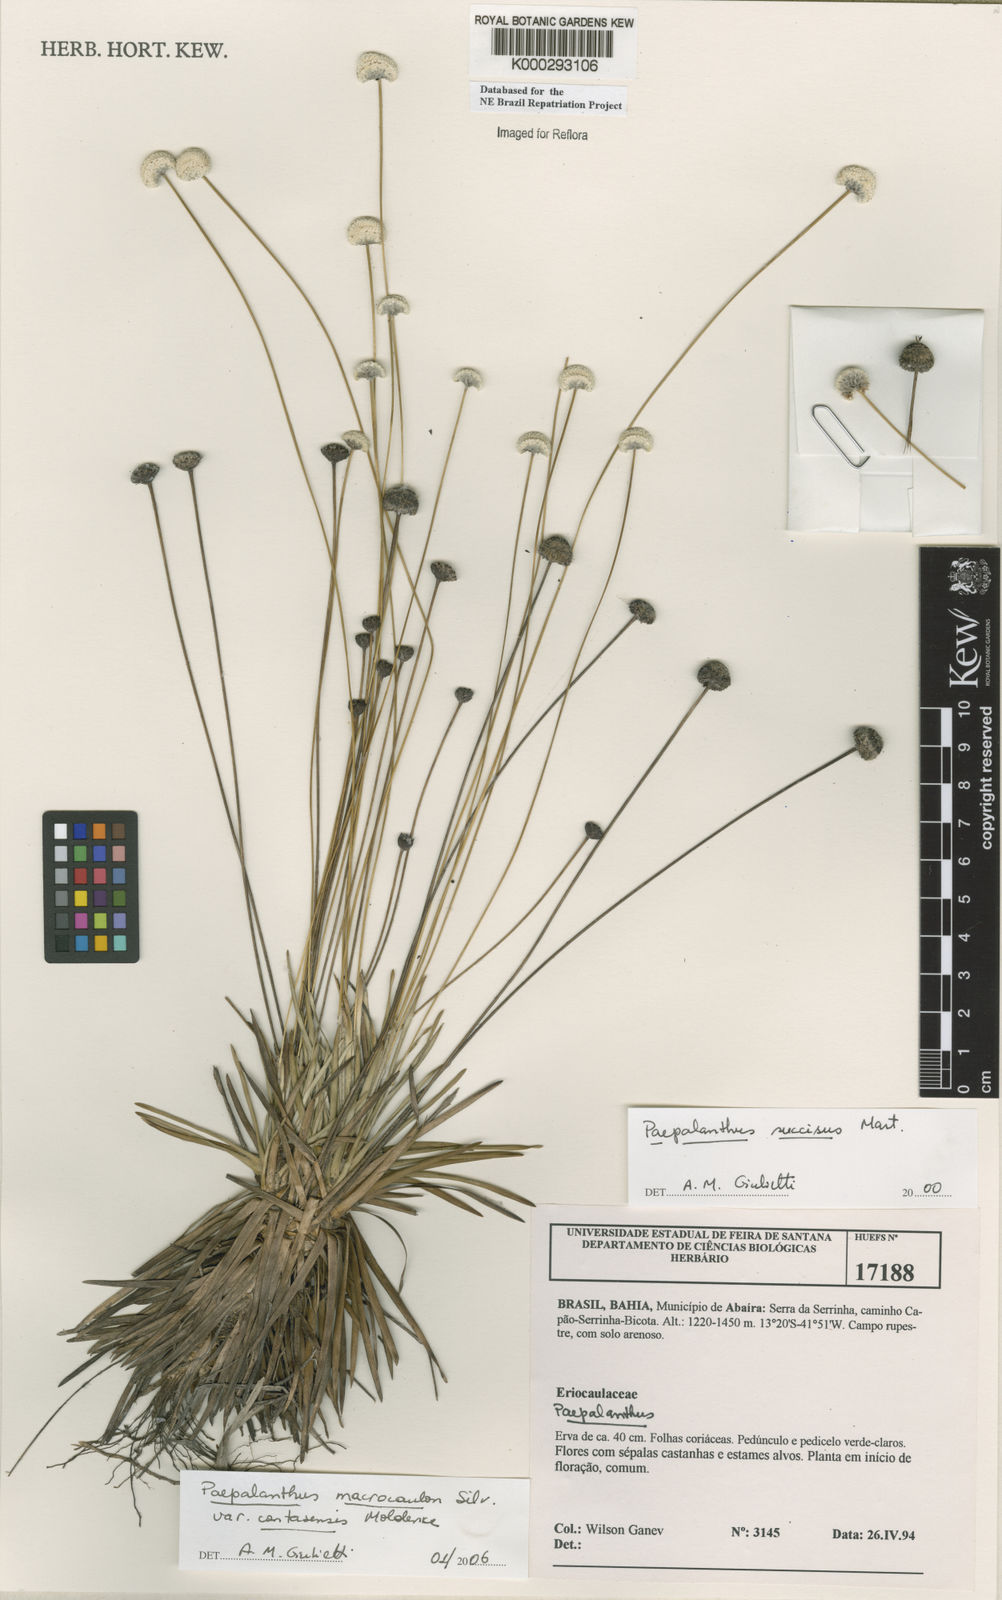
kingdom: Plantae
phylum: Tracheophyta
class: Liliopsida
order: Poales
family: Eriocaulaceae
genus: Paepalanthus
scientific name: Paepalanthus
